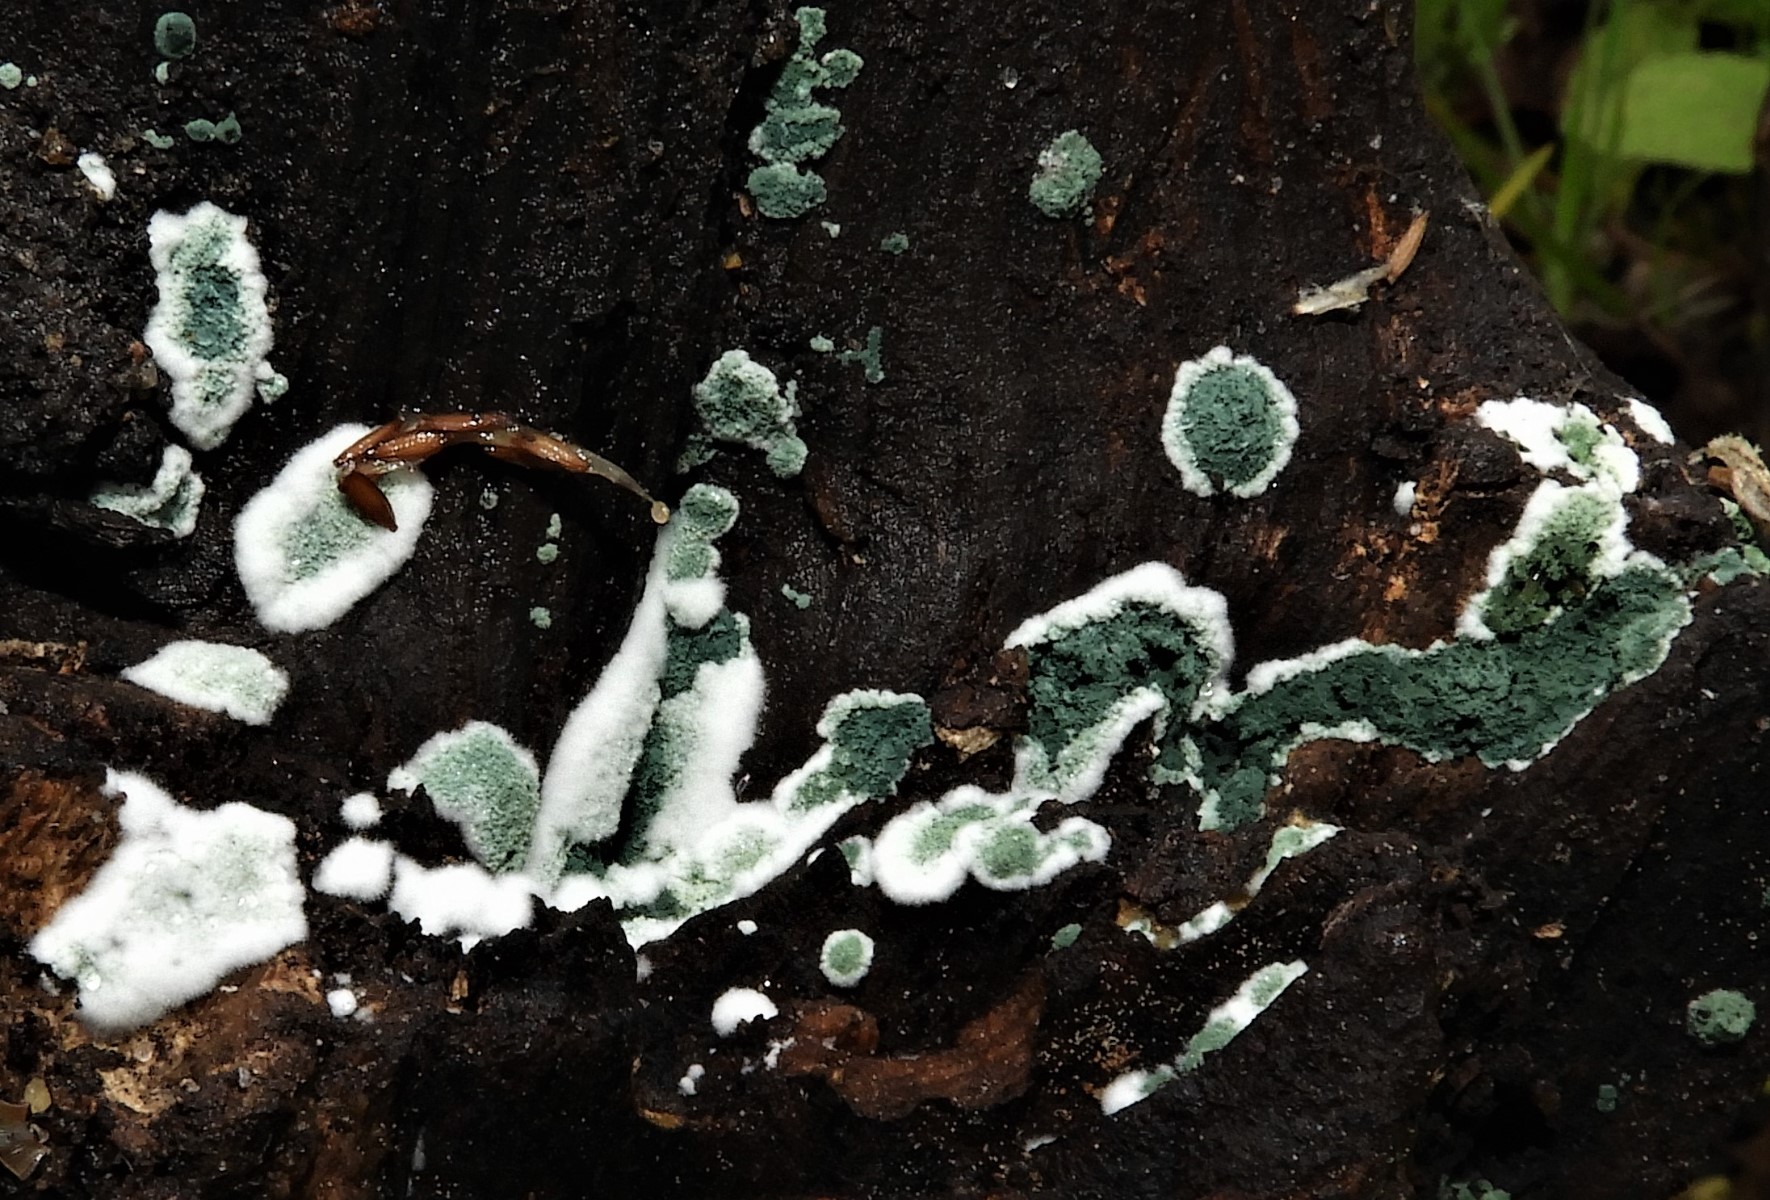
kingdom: Fungi
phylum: Ascomycota
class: Sordariomycetes
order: Hypocreales
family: Hypocreaceae
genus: Trichoderma
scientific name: Trichoderma
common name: kødkerne
